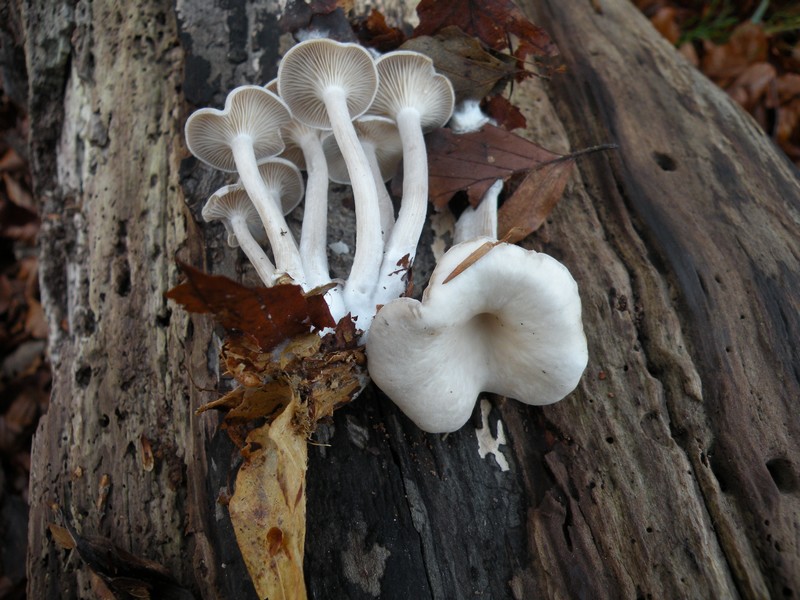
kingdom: Fungi
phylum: Basidiomycota
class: Agaricomycetes
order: Agaricales
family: Tricholomataceae
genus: Clitocybe
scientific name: Clitocybe metachroa
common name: grå tragthat
